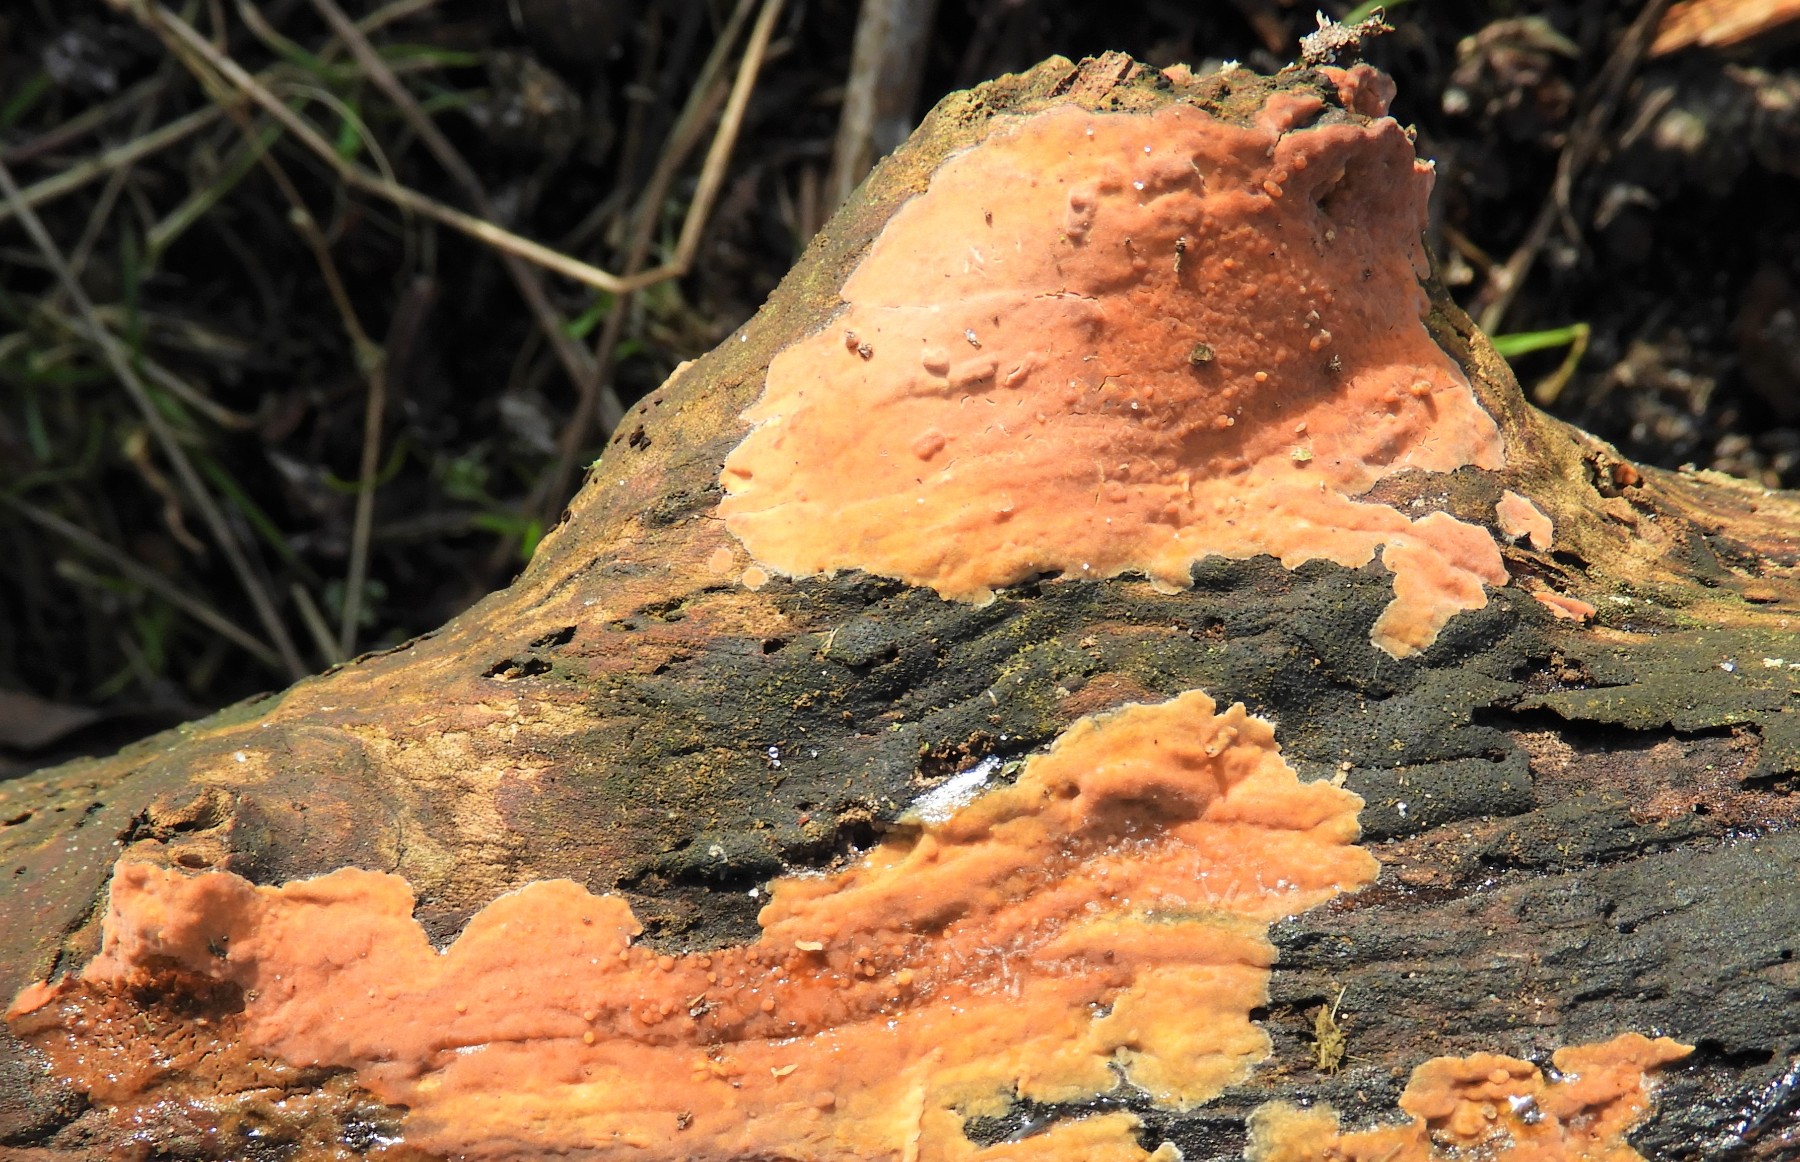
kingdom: Fungi
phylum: Basidiomycota
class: Agaricomycetes
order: Russulales
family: Peniophoraceae
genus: Peniophora
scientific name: Peniophora incarnata
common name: laksefarvet voksskind
